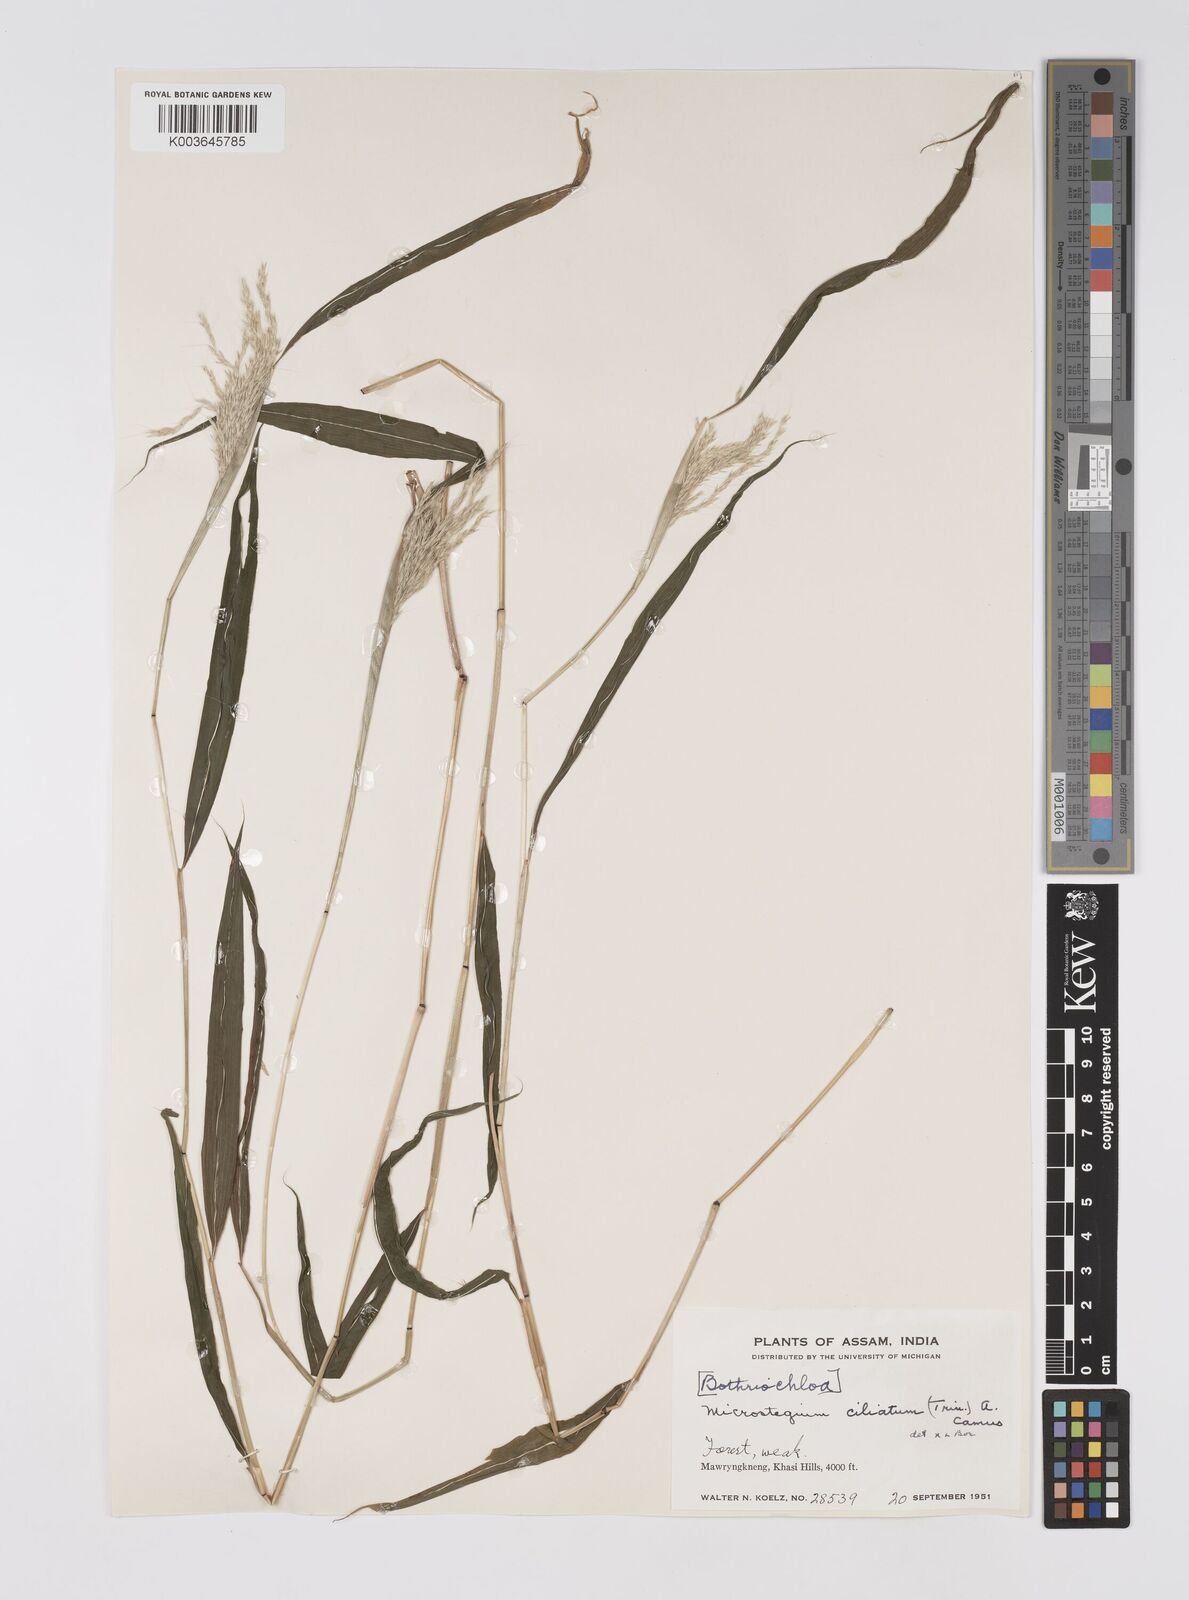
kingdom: Plantae
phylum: Tracheophyta
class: Liliopsida
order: Poales
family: Poaceae
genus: Microstegium
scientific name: Microstegium fasciculatum
